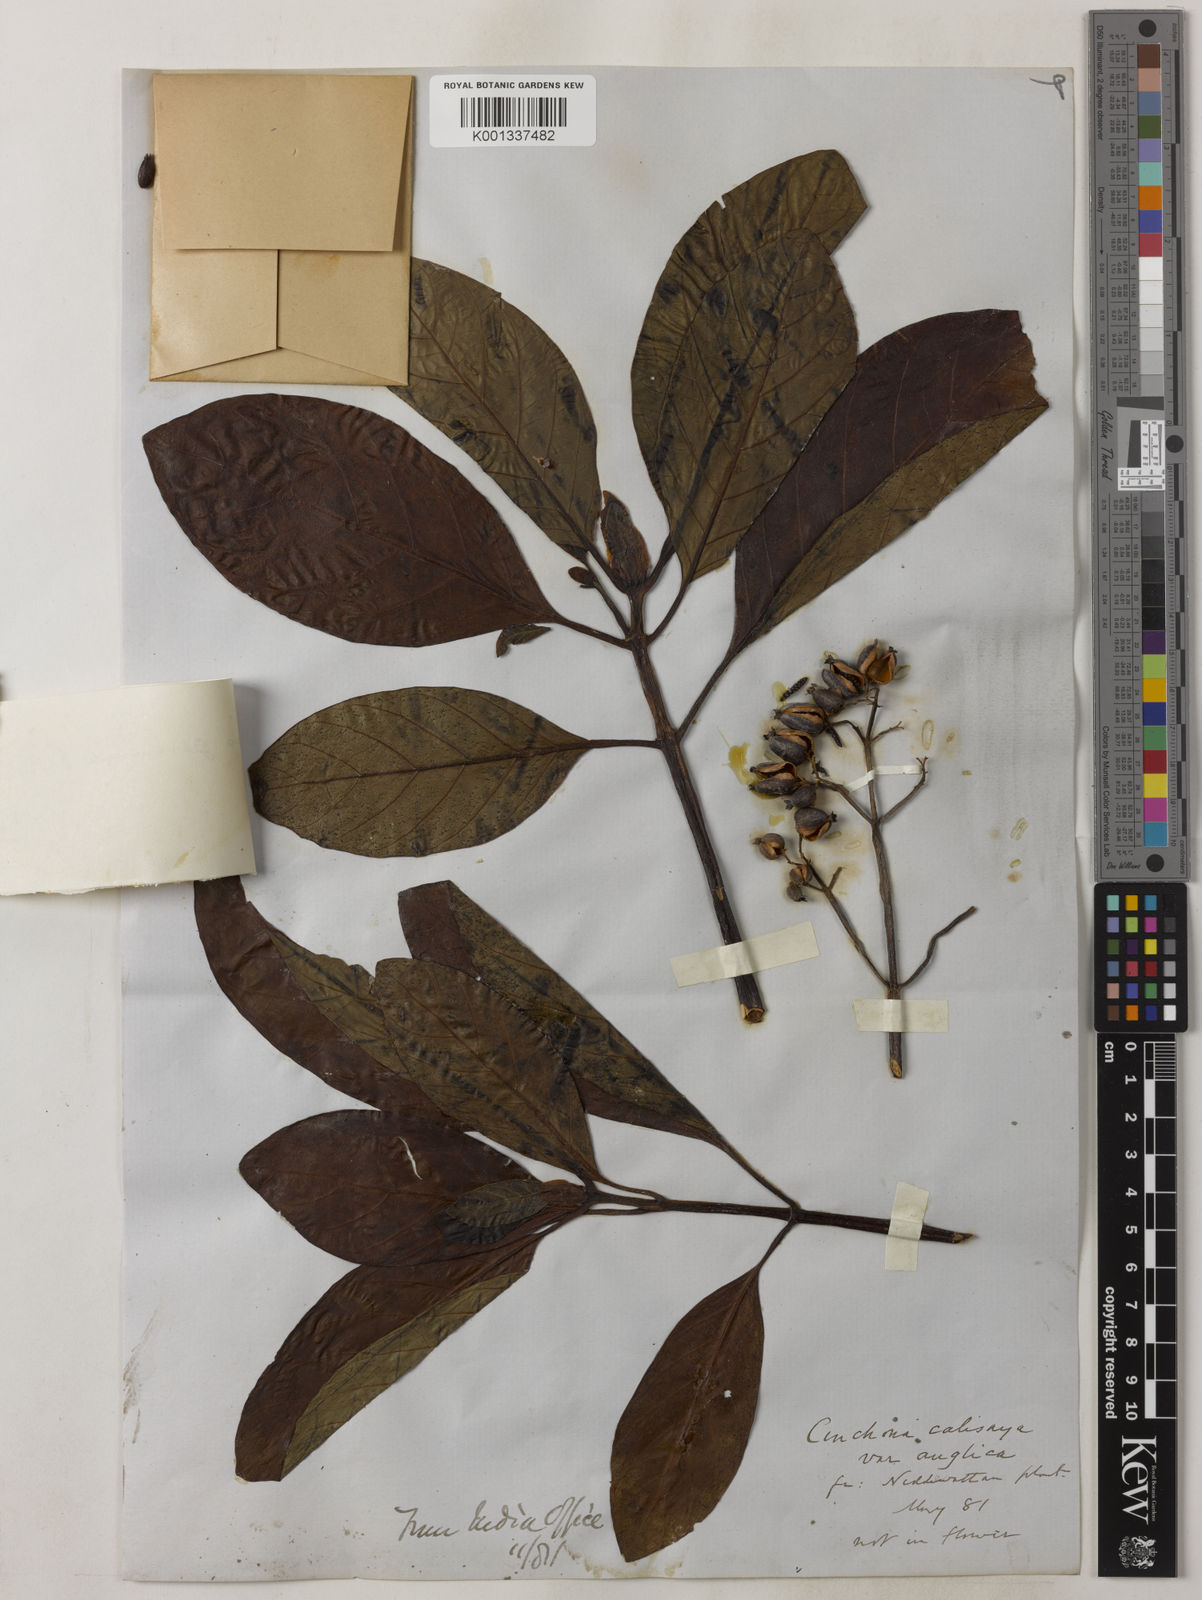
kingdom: Plantae
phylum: Tracheophyta
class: Magnoliopsida
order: Gentianales
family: Rubiaceae
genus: Cinchona
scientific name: Cinchona calisaya
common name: Ledgerbark
